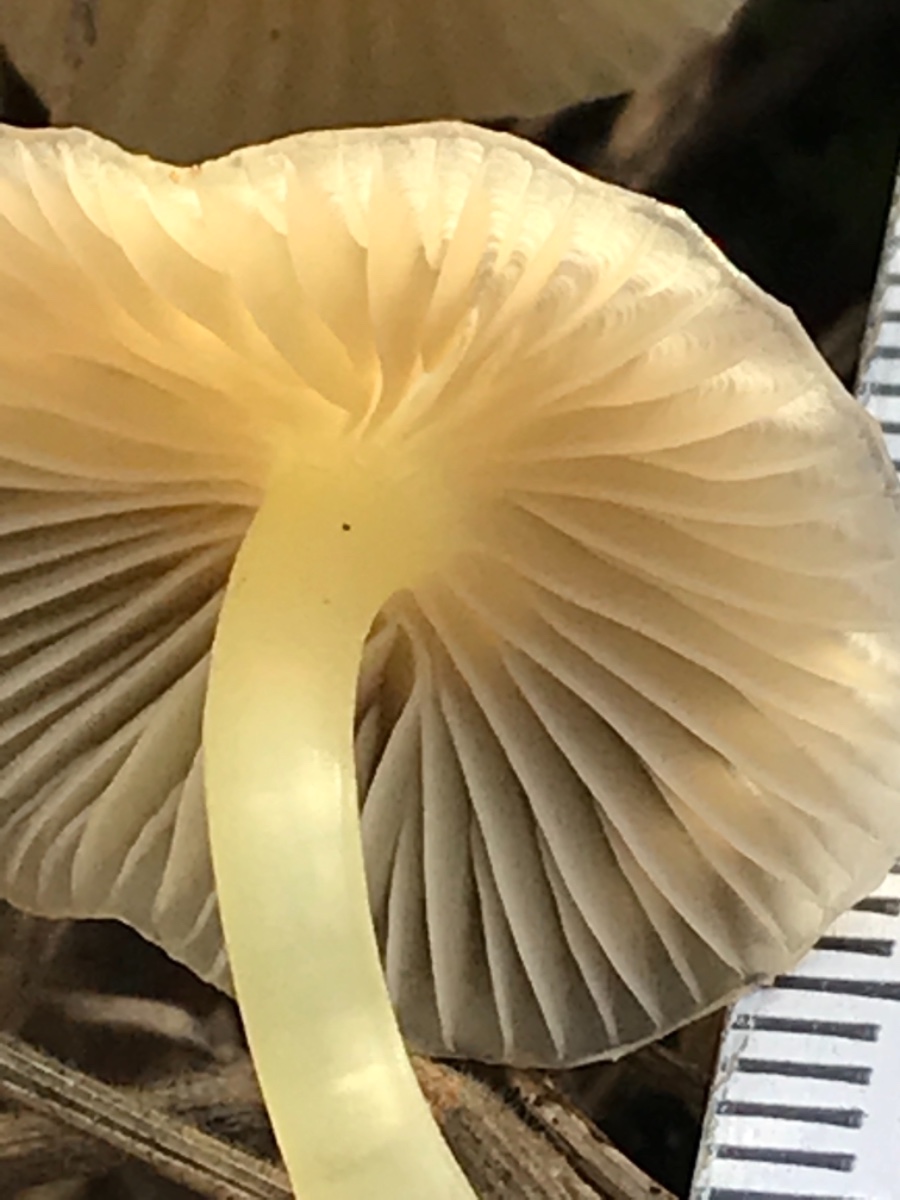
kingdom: Fungi
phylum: Basidiomycota
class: Agaricomycetes
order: Agaricales
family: Mycenaceae
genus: Mycena
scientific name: Mycena epipterygia
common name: gulstokket huesvamp
